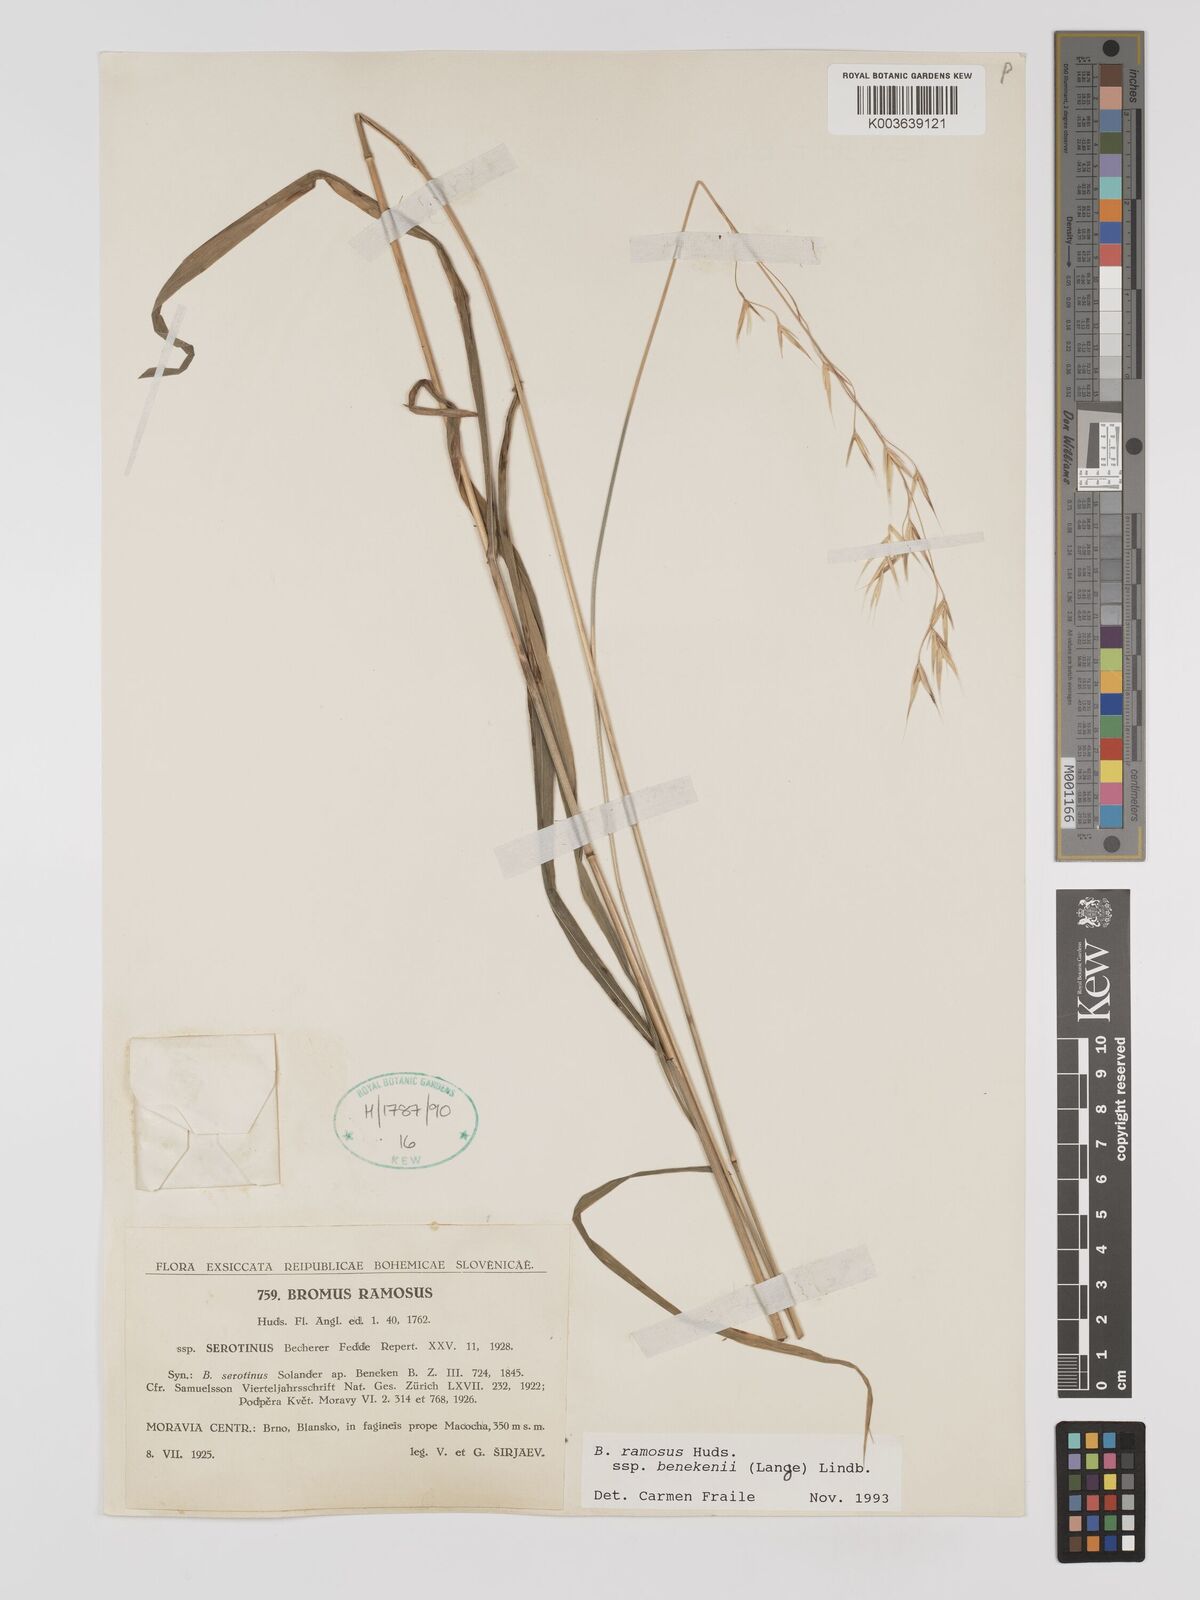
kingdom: Plantae
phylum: Tracheophyta
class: Liliopsida
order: Poales
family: Poaceae
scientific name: Poaceae
